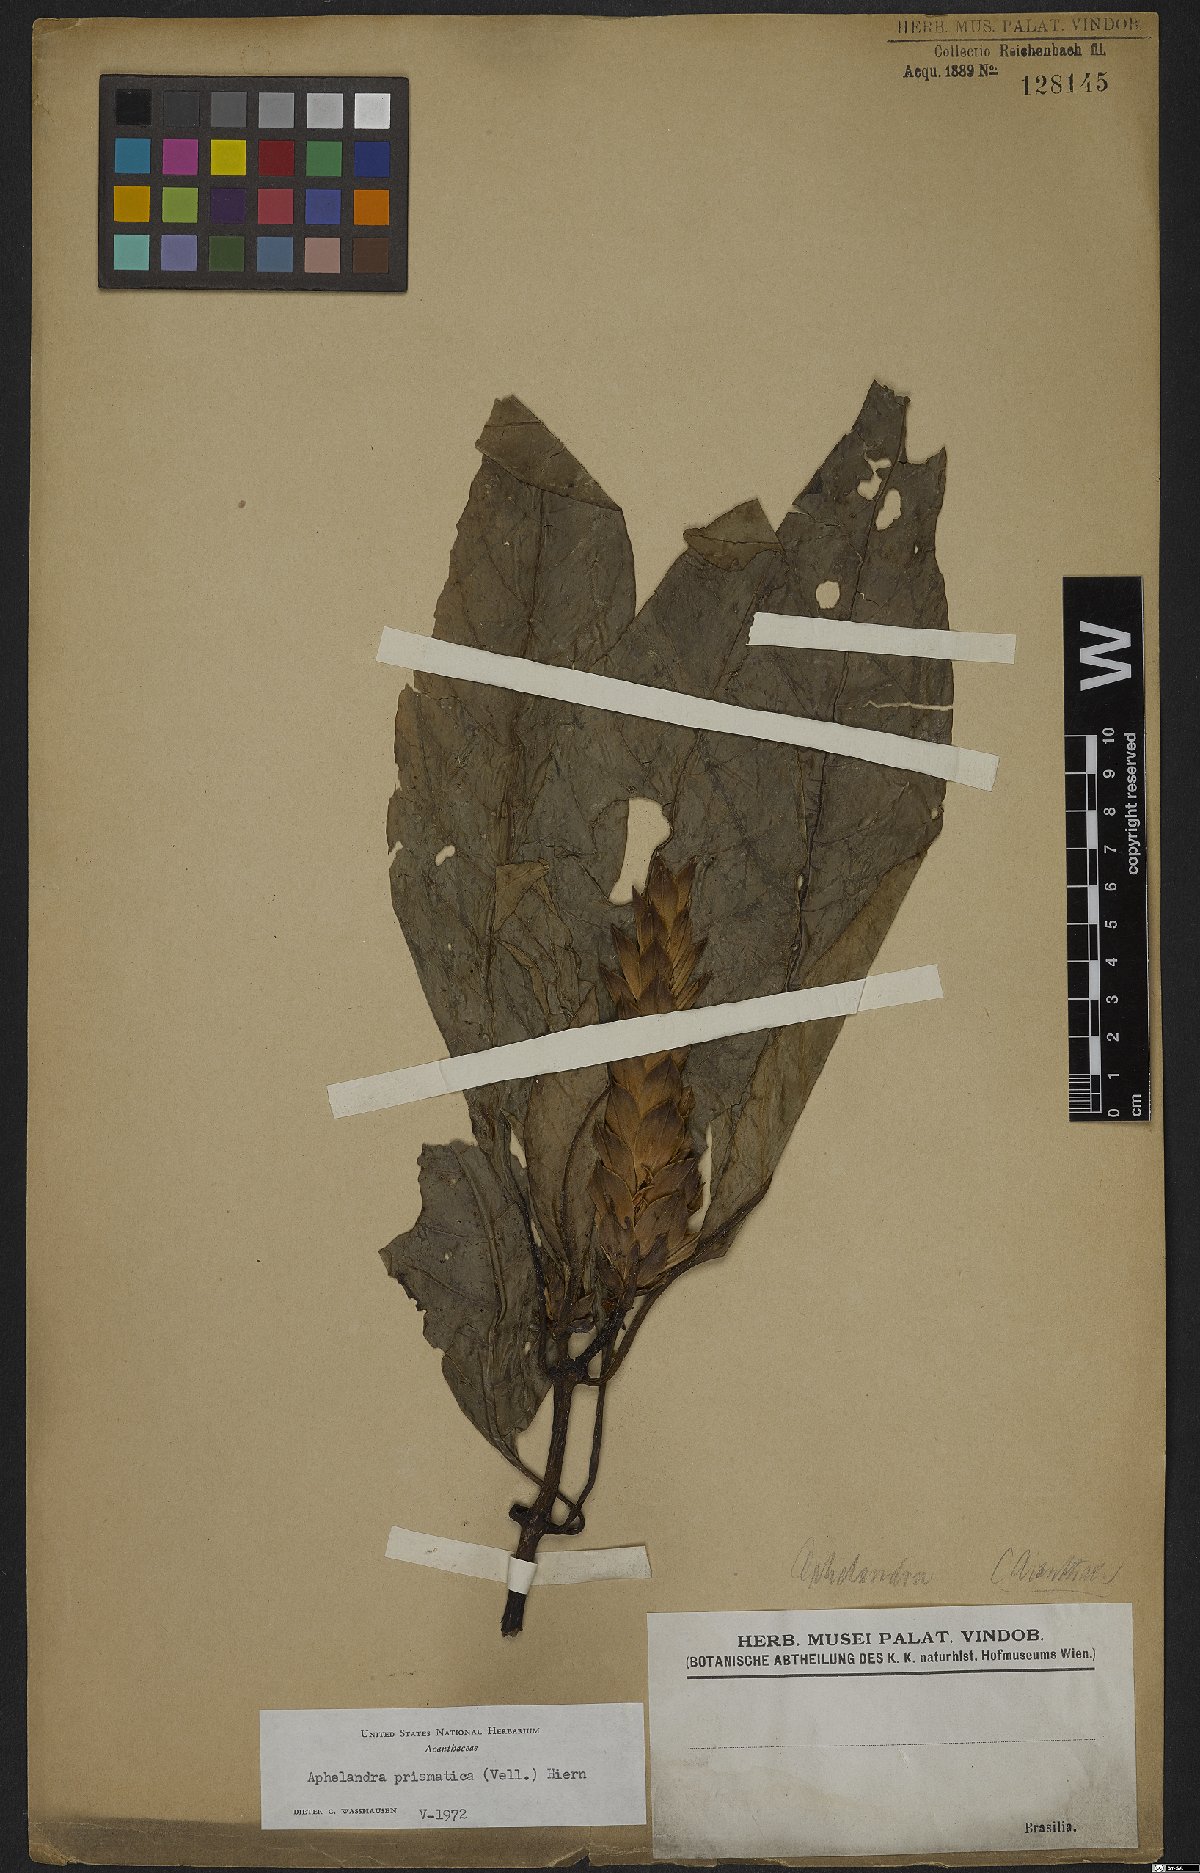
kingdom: Plantae
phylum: Tracheophyta
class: Magnoliopsida
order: Lamiales
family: Acanthaceae
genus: Aphelandra
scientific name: Aphelandra prismatica
